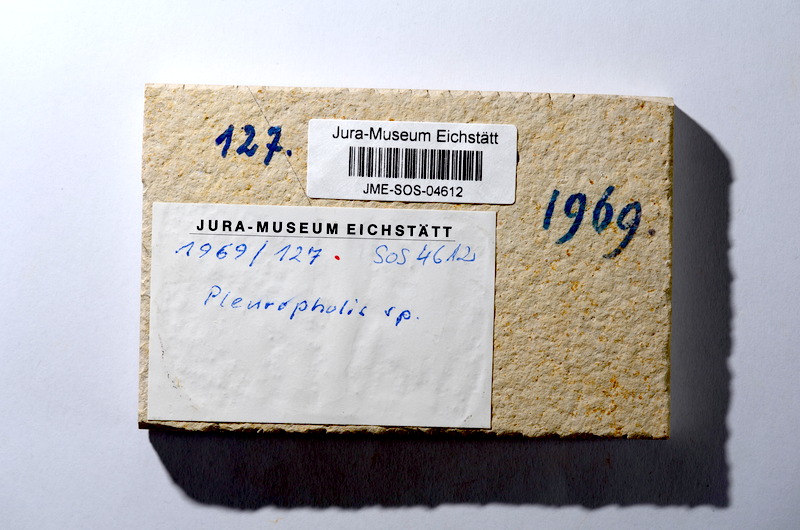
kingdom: Animalia
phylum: Chordata
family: Pleuropholidae
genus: Pleuropholis
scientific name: Pleuropholis
